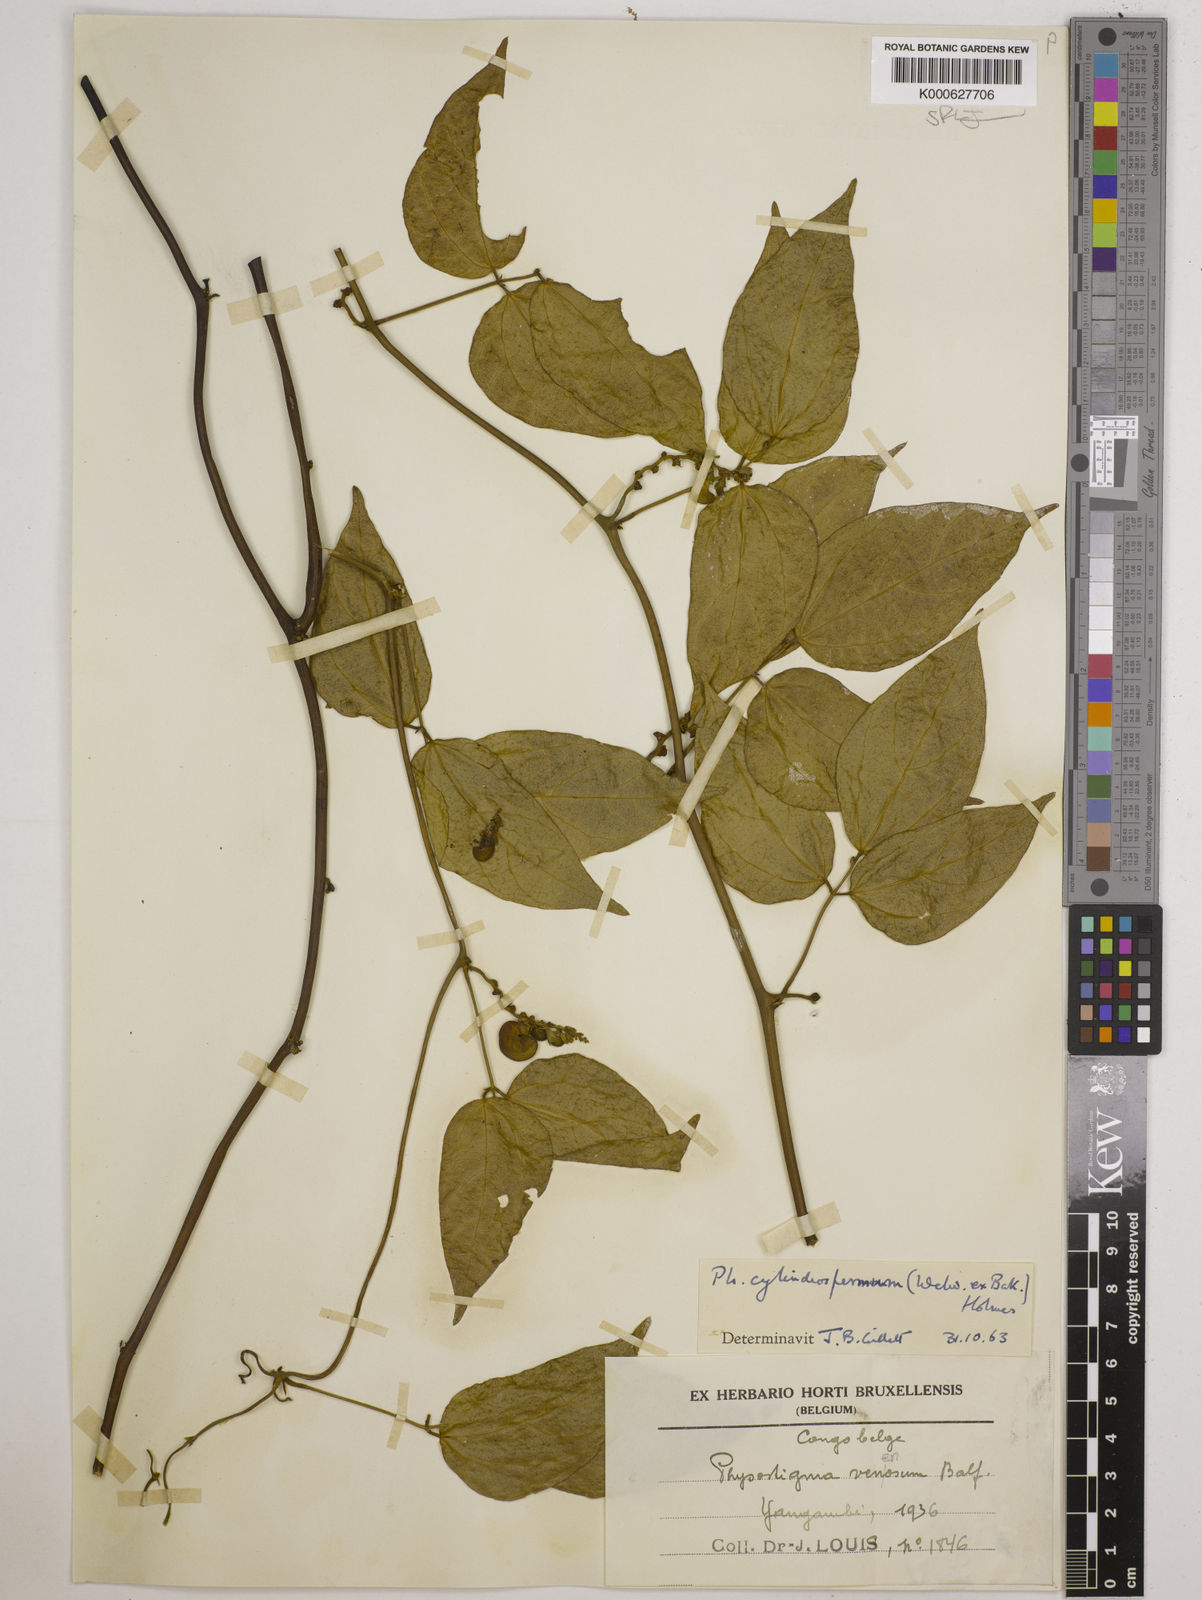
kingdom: Plantae
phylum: Tracheophyta
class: Magnoliopsida
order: Fabales
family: Fabaceae
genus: Physostigma
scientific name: Physostigma cylindrospermum
